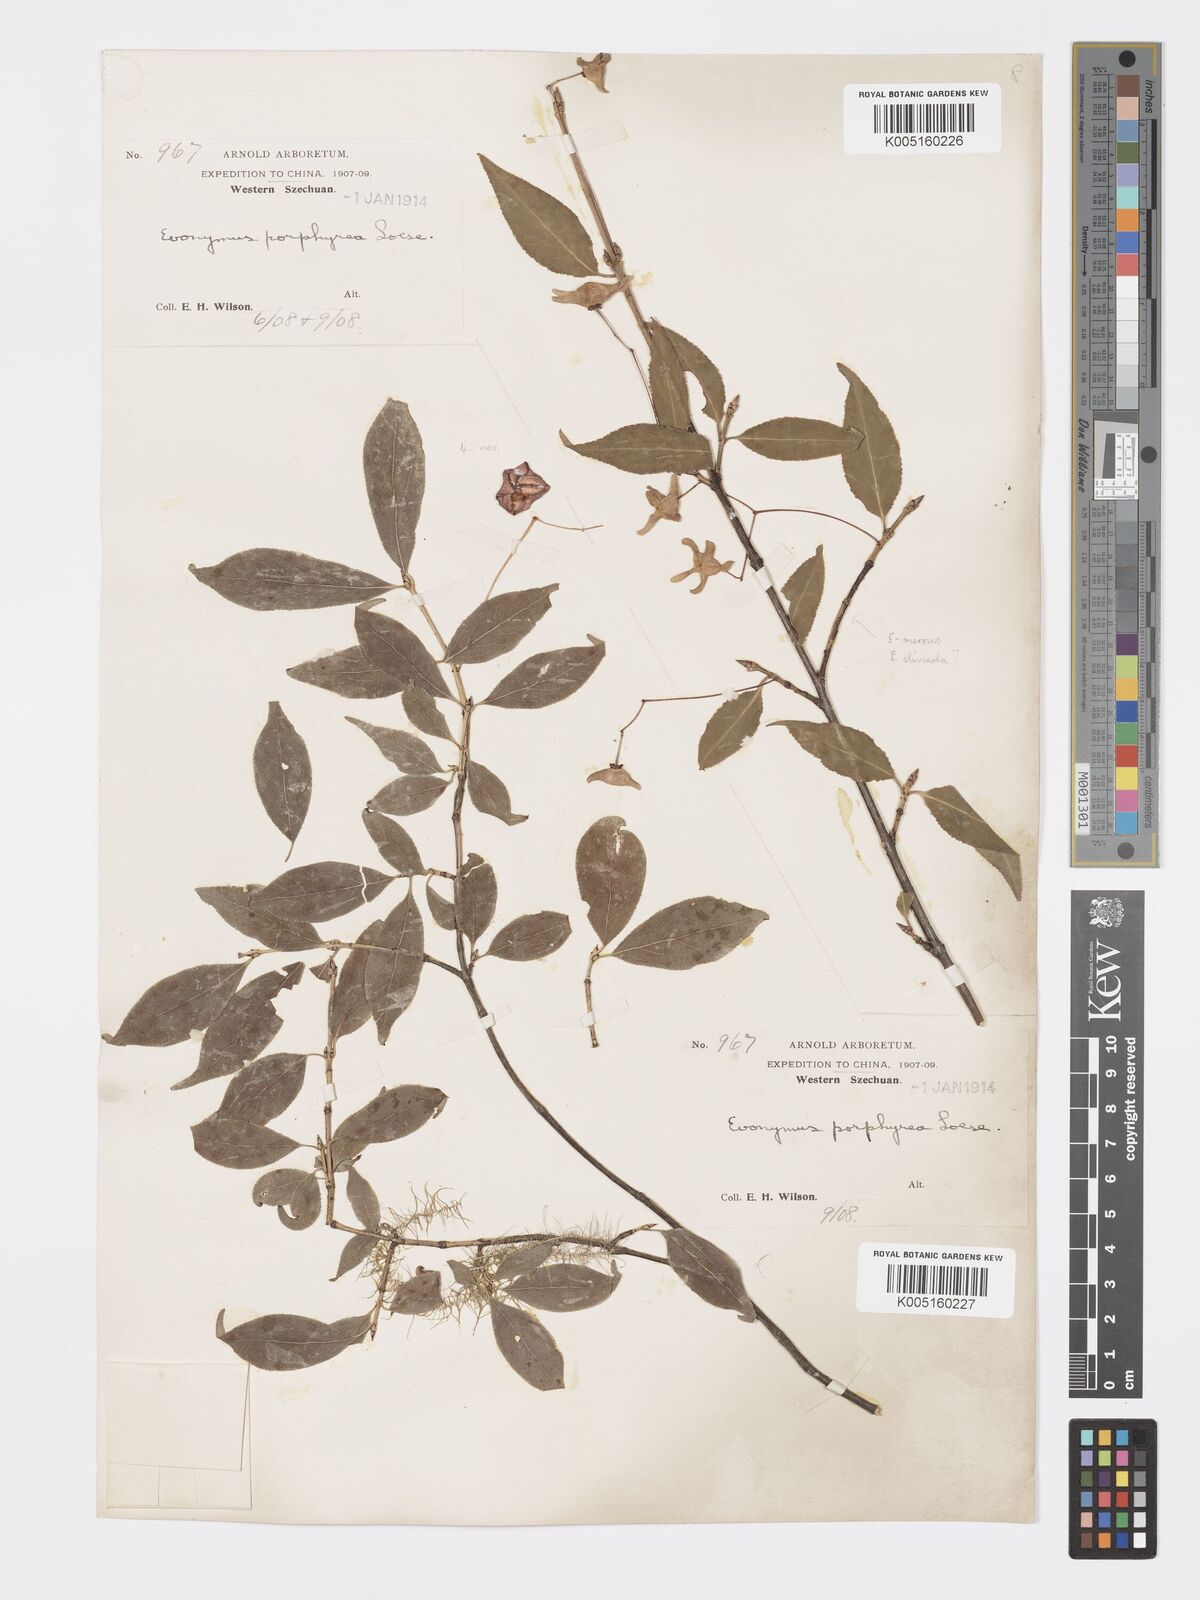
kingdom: Plantae
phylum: Tracheophyta
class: Magnoliopsida
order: Celastrales
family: Celastraceae
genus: Euonymus
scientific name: Euonymus giraldii
